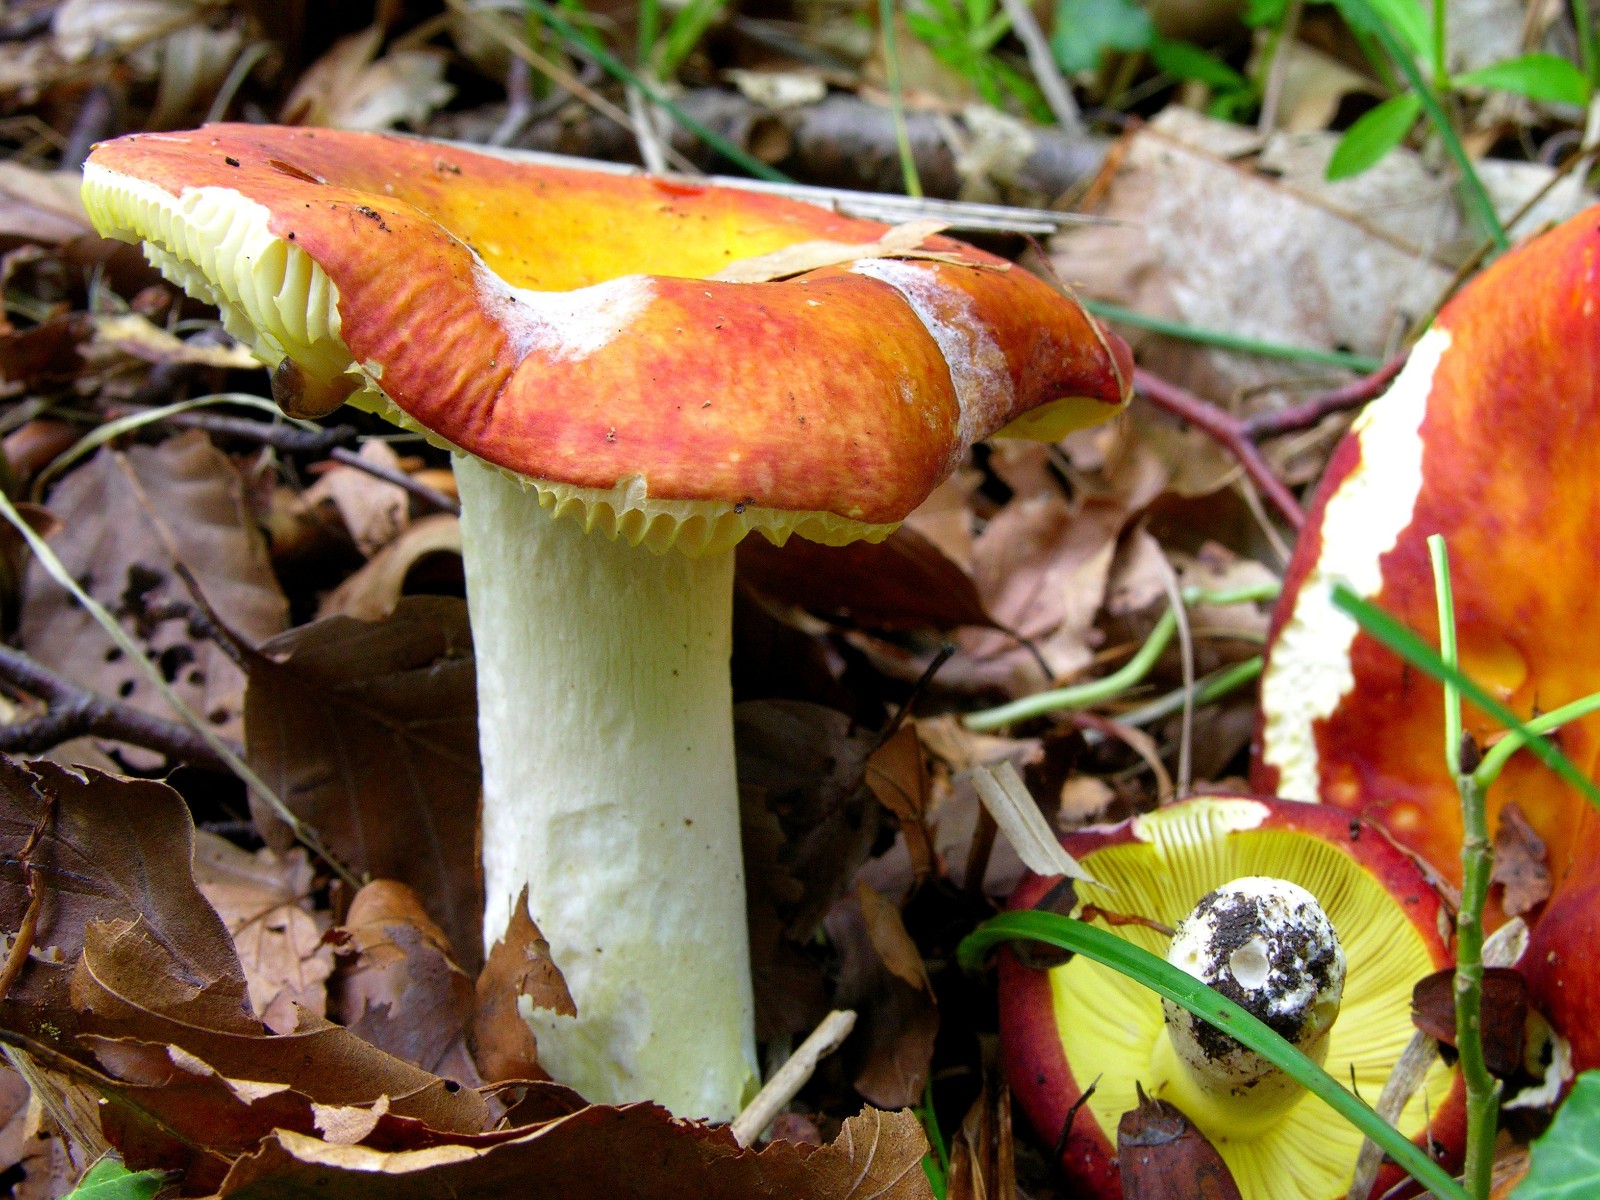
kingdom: Fungi
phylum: Basidiomycota
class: Agaricomycetes
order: Russulales
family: Russulaceae
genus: Russula
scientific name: Russula aurea
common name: gylden skørhat
